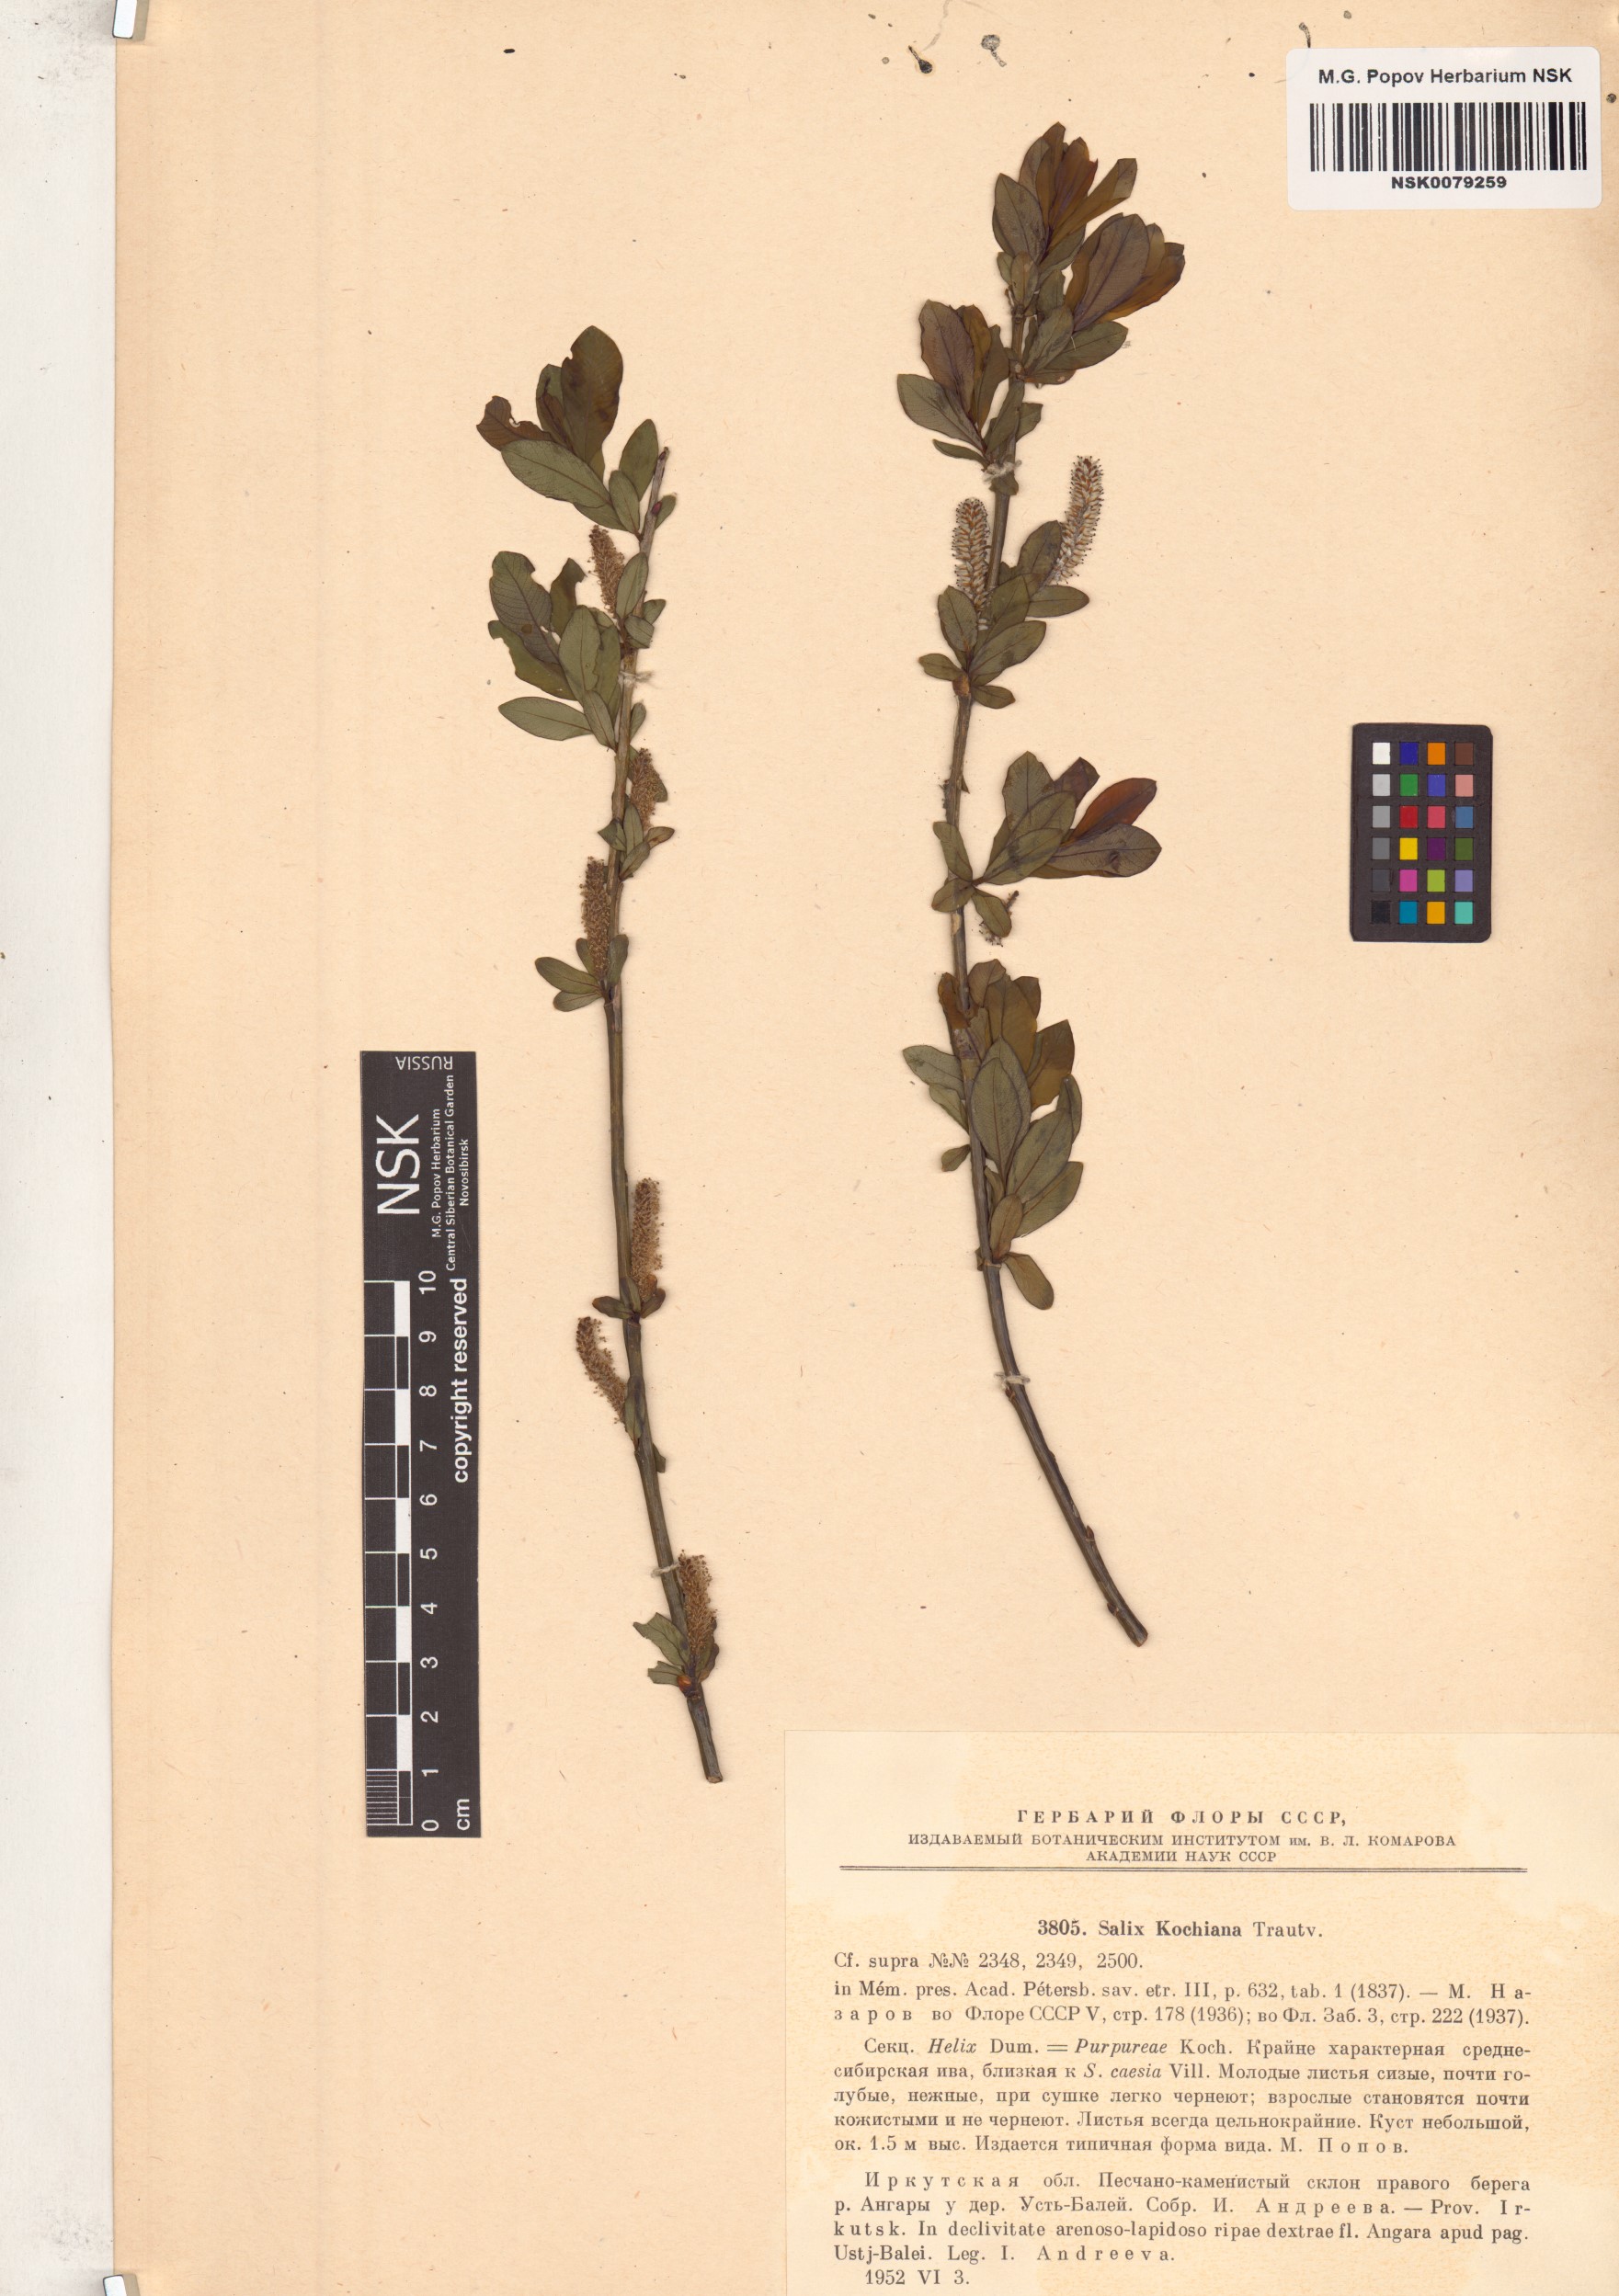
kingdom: Plantae
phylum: Tracheophyta
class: Magnoliopsida
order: Malpighiales
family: Salicaceae
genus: Salix
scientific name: Salix kochiana
